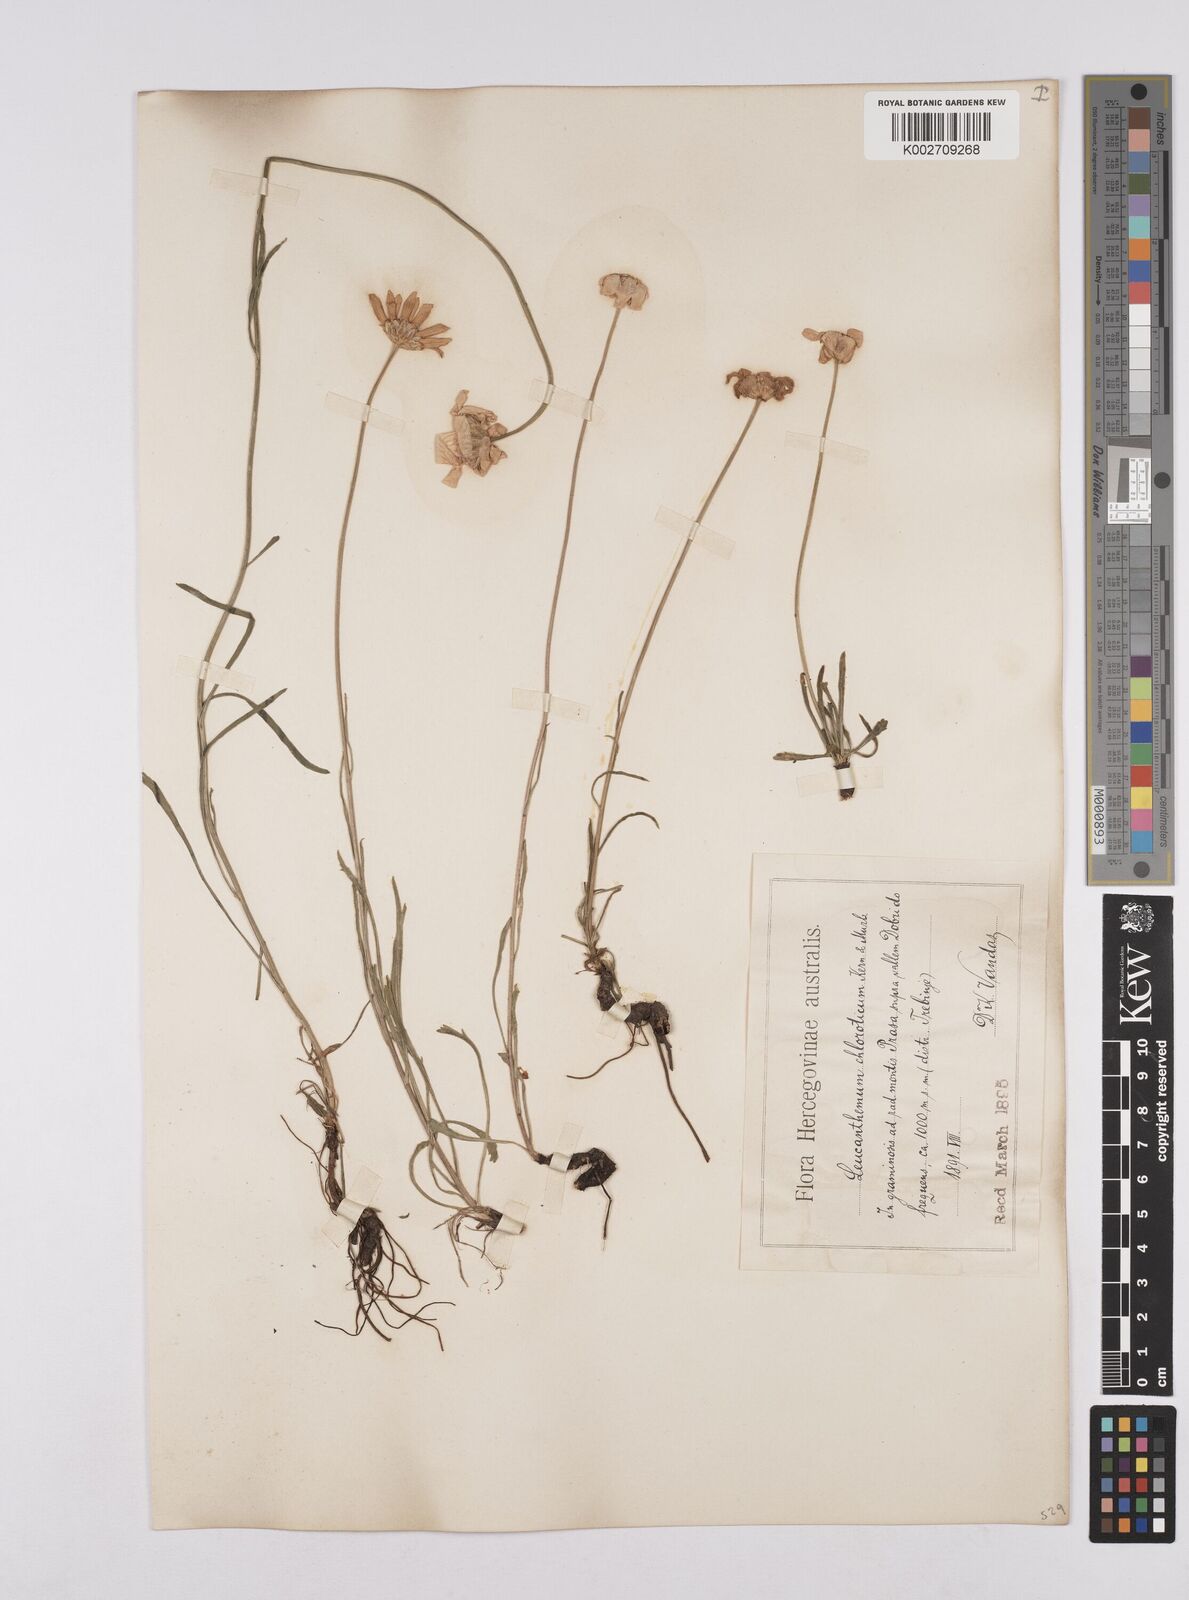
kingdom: Plantae
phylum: Tracheophyta
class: Magnoliopsida
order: Asterales
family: Asteraceae
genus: Leucanthemum
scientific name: Leucanthemum chloroticum
